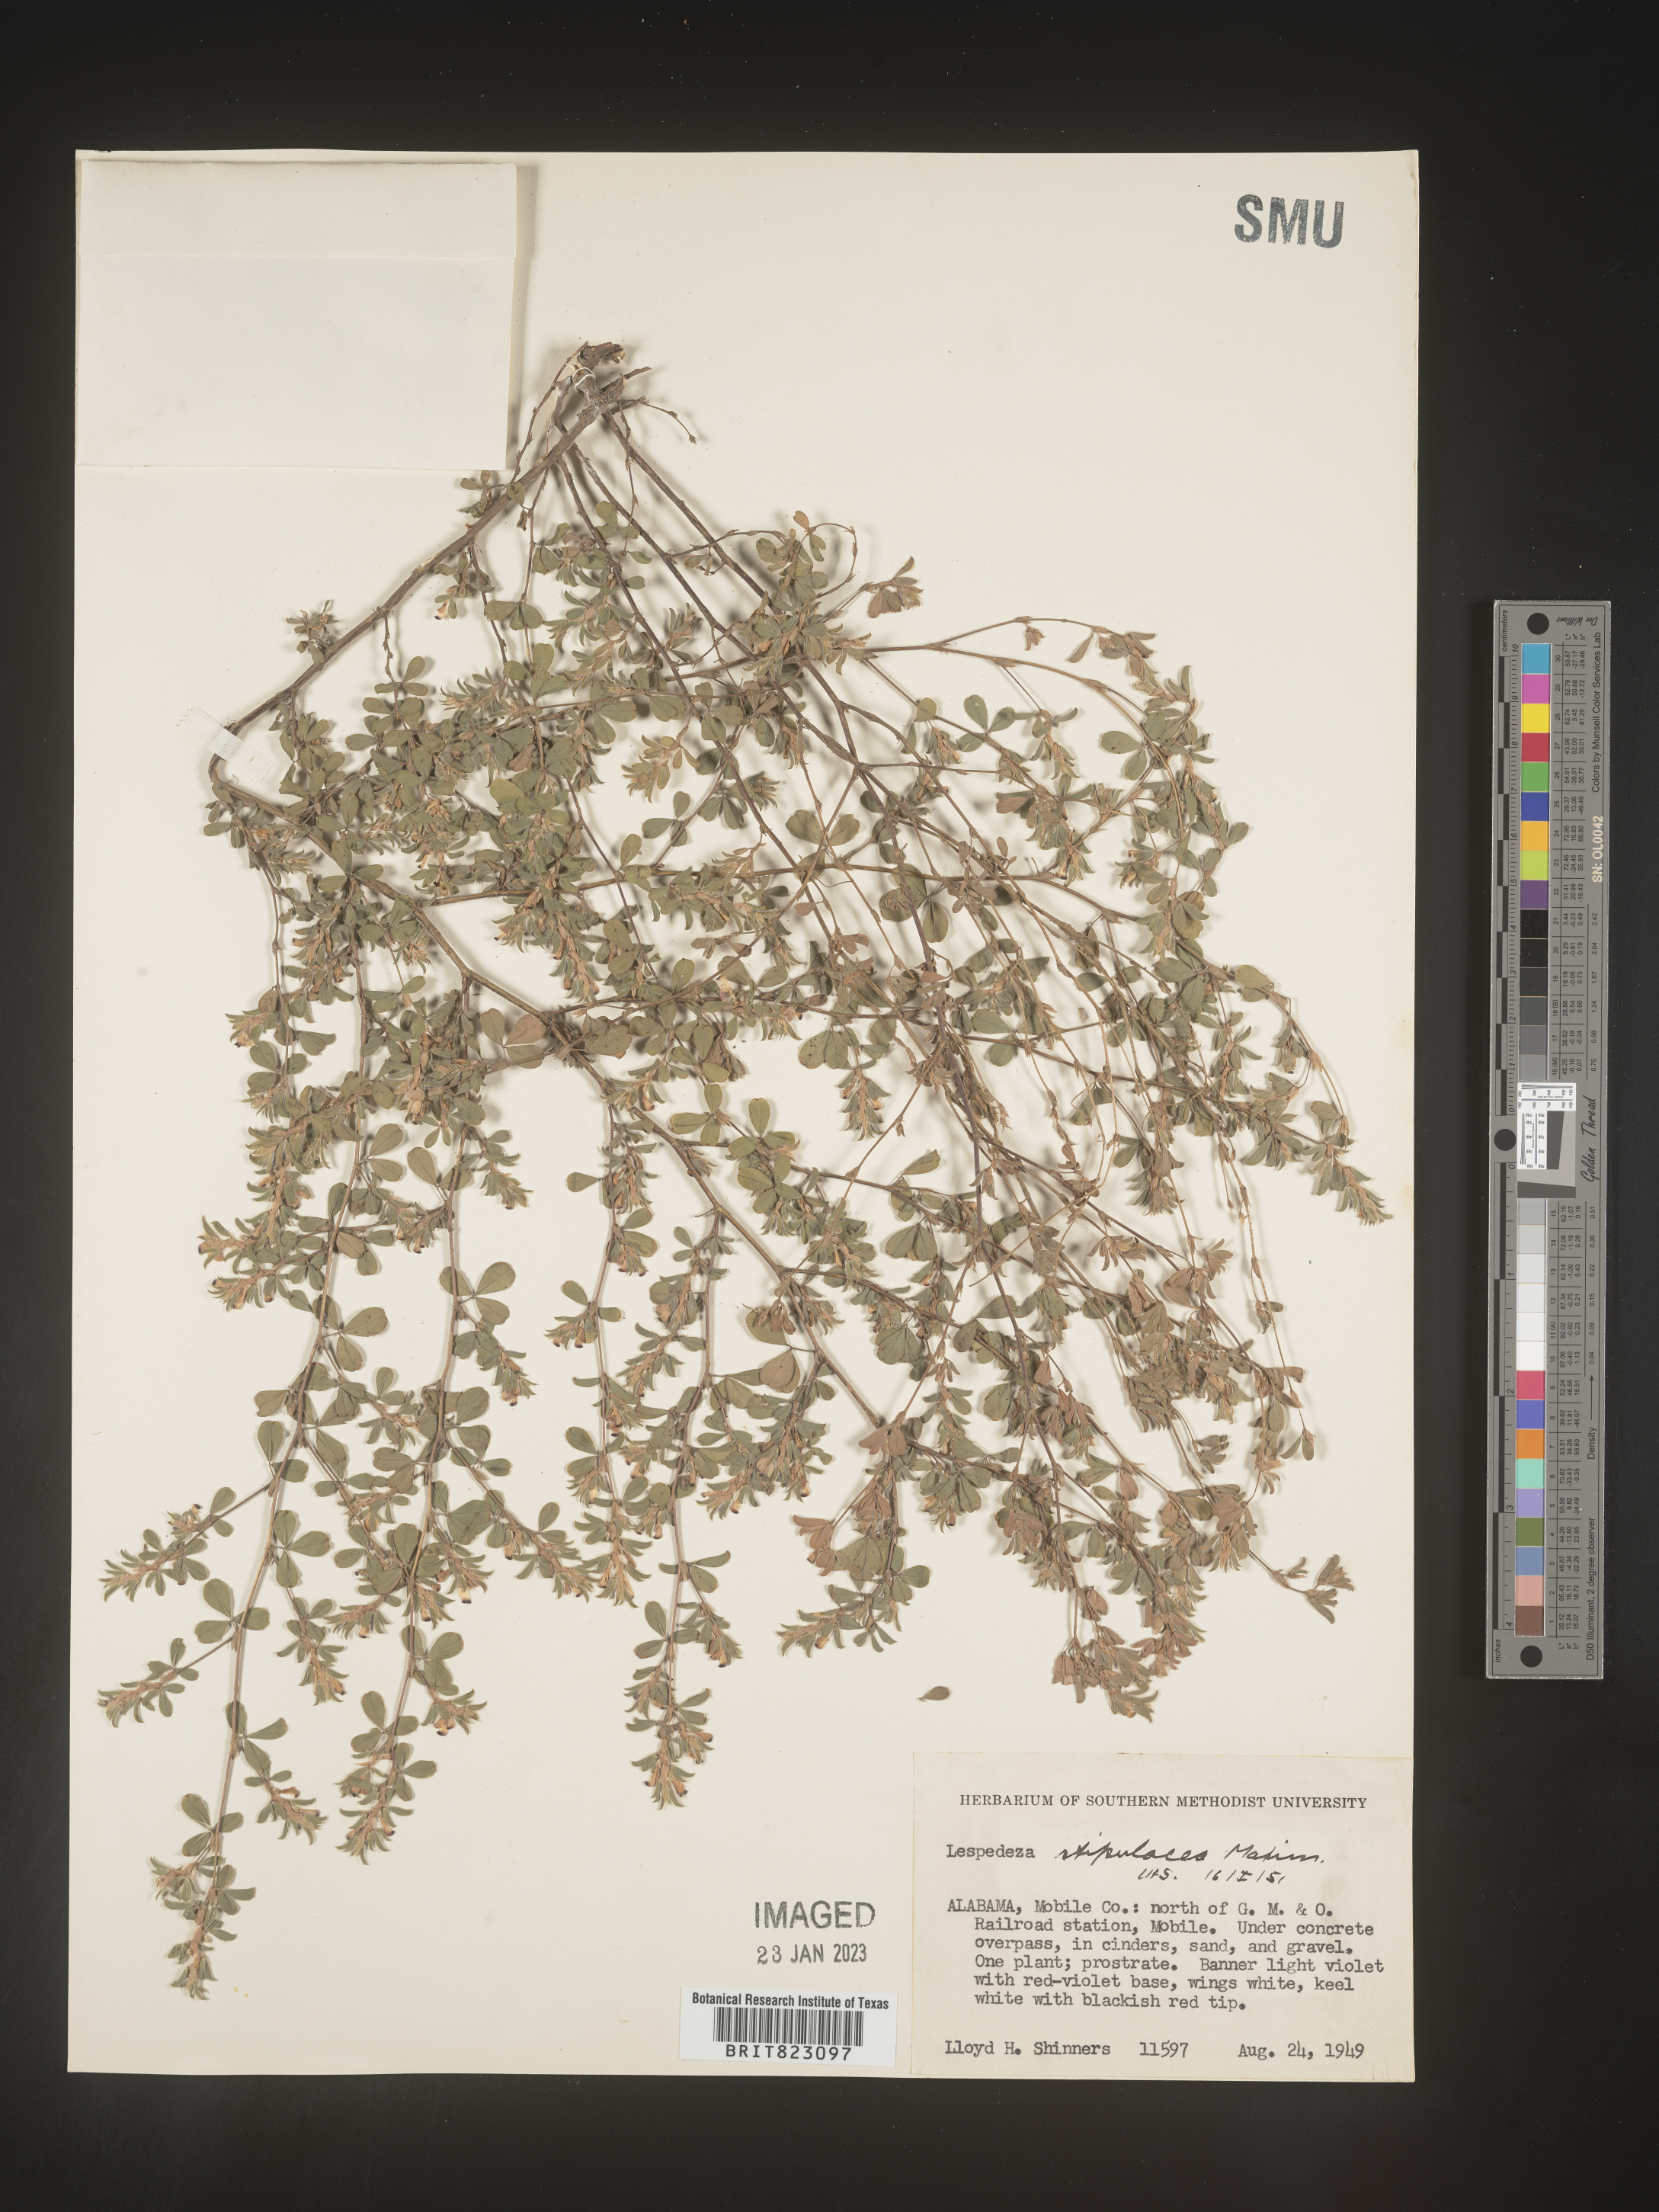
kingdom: Plantae
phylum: Tracheophyta
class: Magnoliopsida
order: Fabales
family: Fabaceae
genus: Lespedeza
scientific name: Lespedeza
